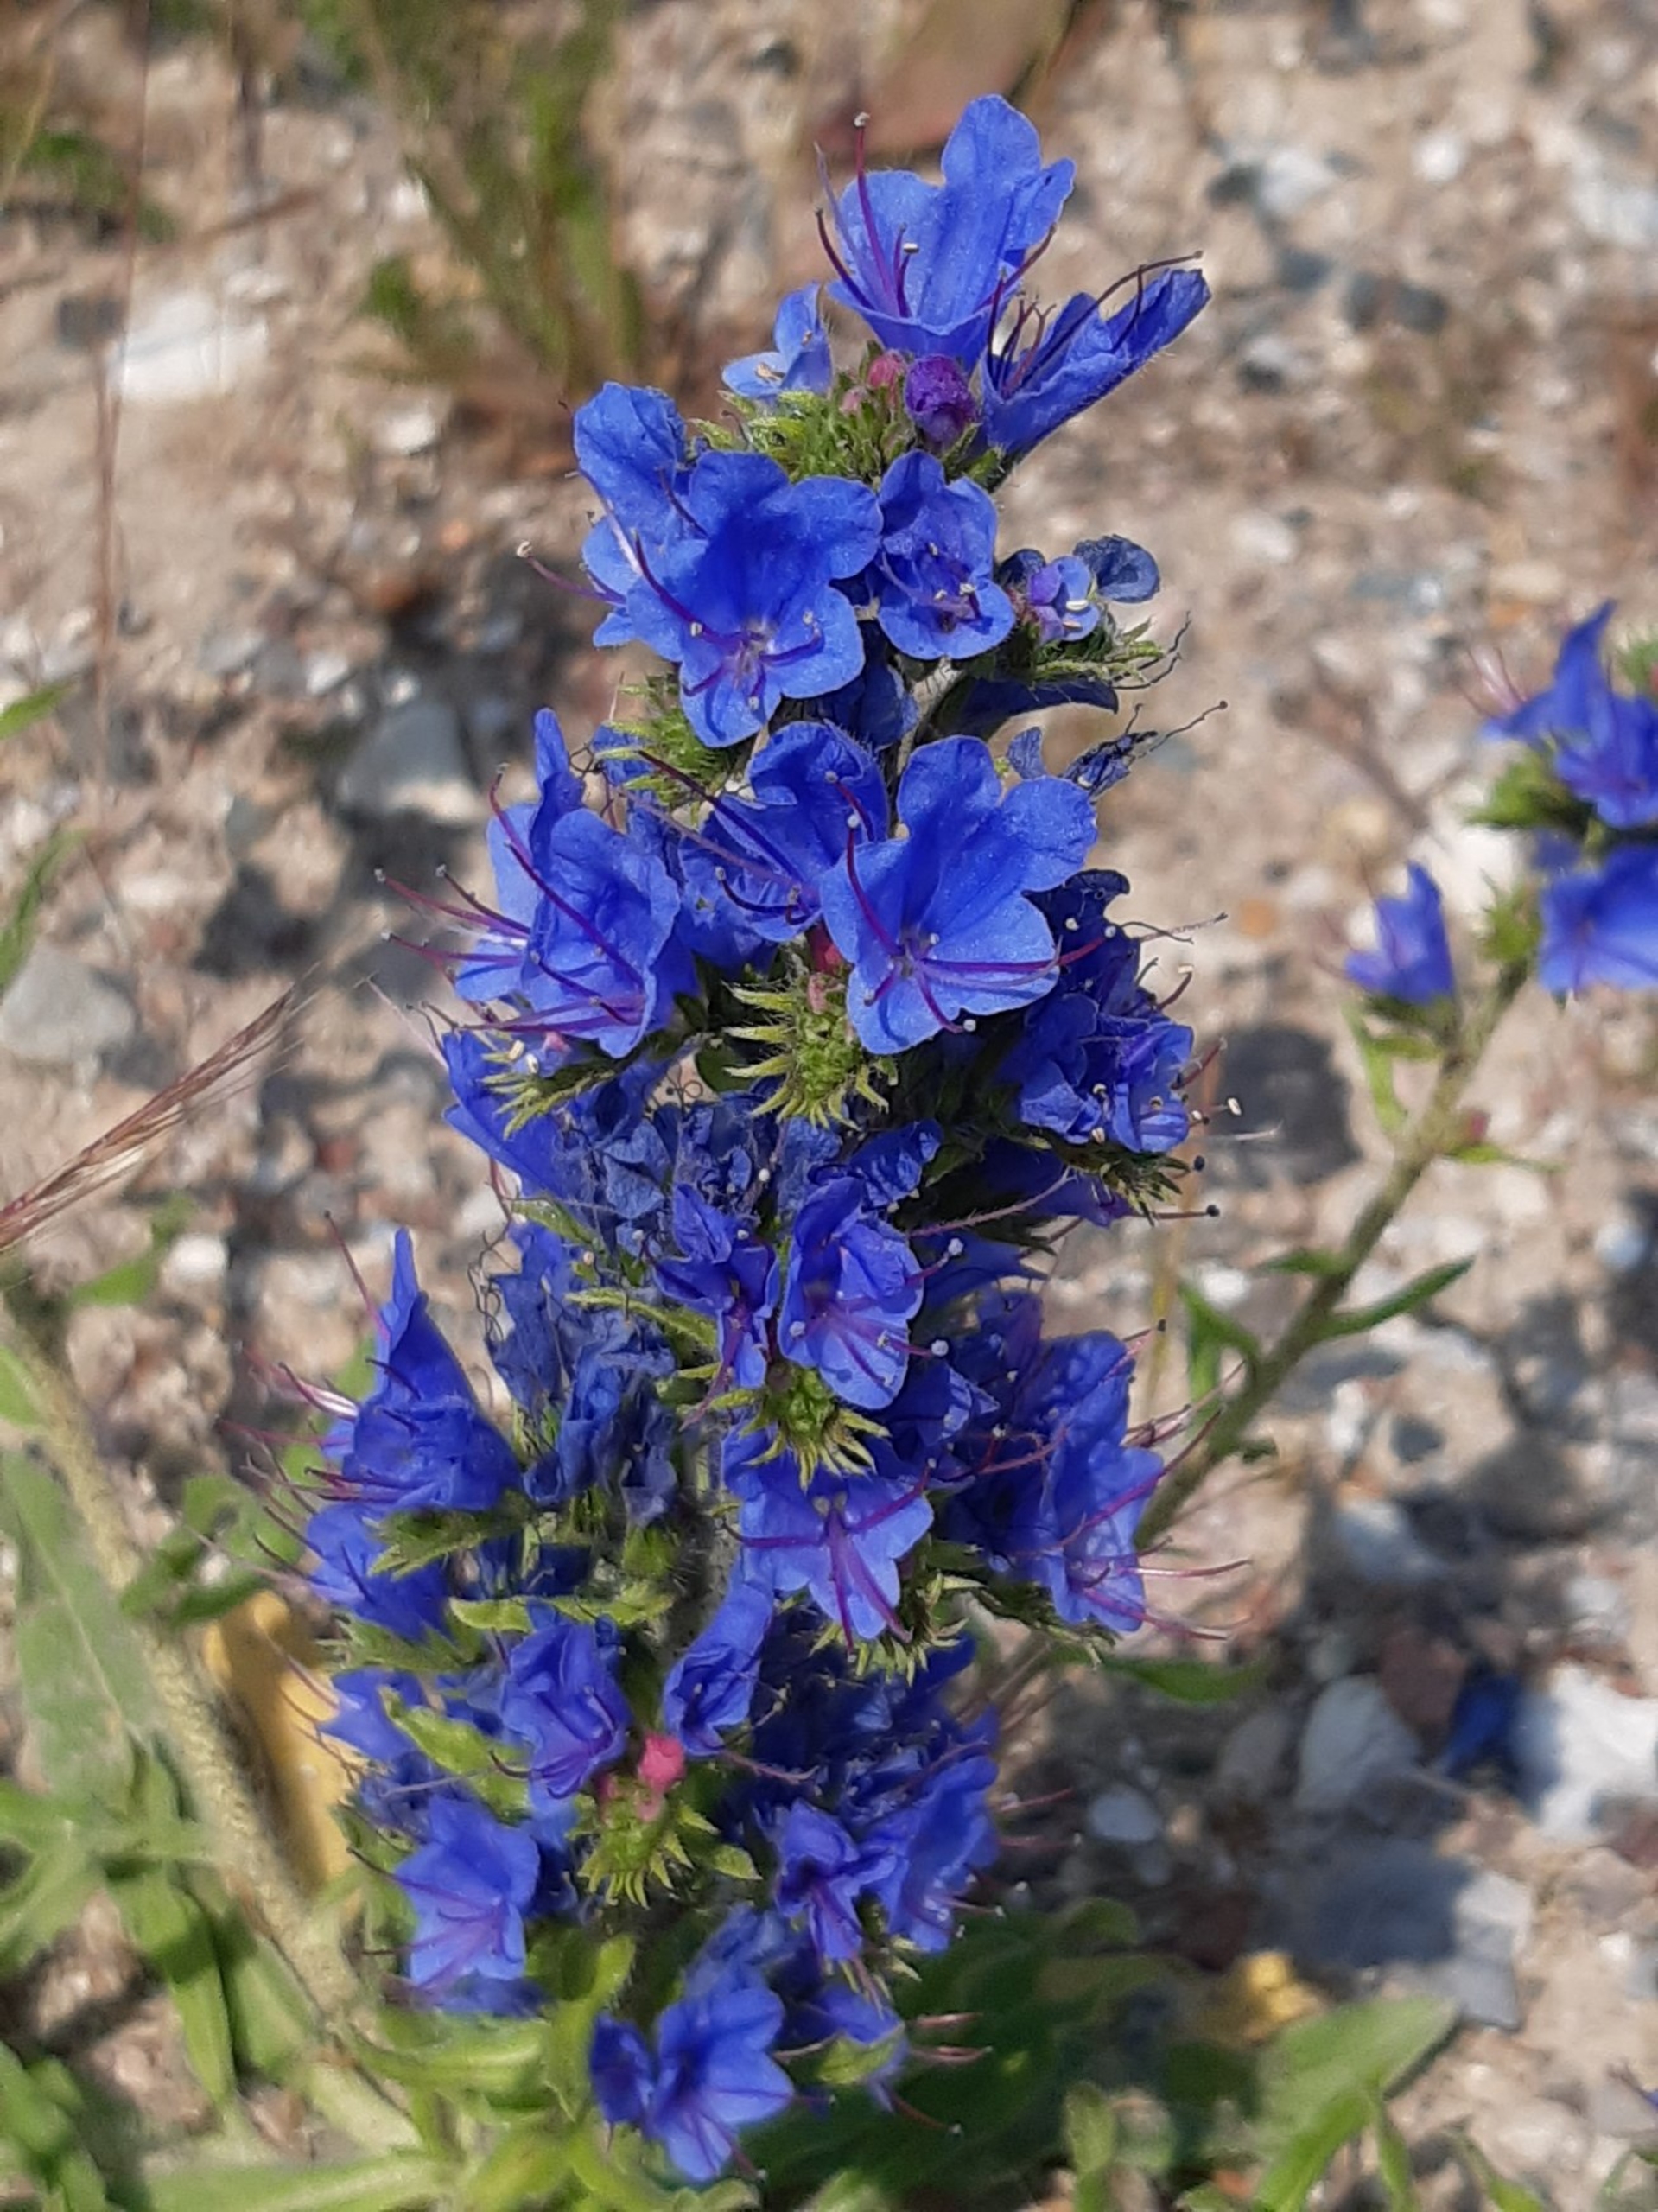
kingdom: Plantae
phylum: Tracheophyta
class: Magnoliopsida
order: Boraginales
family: Boraginaceae
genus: Echium
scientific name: Echium vulgare
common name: Slangehoved
